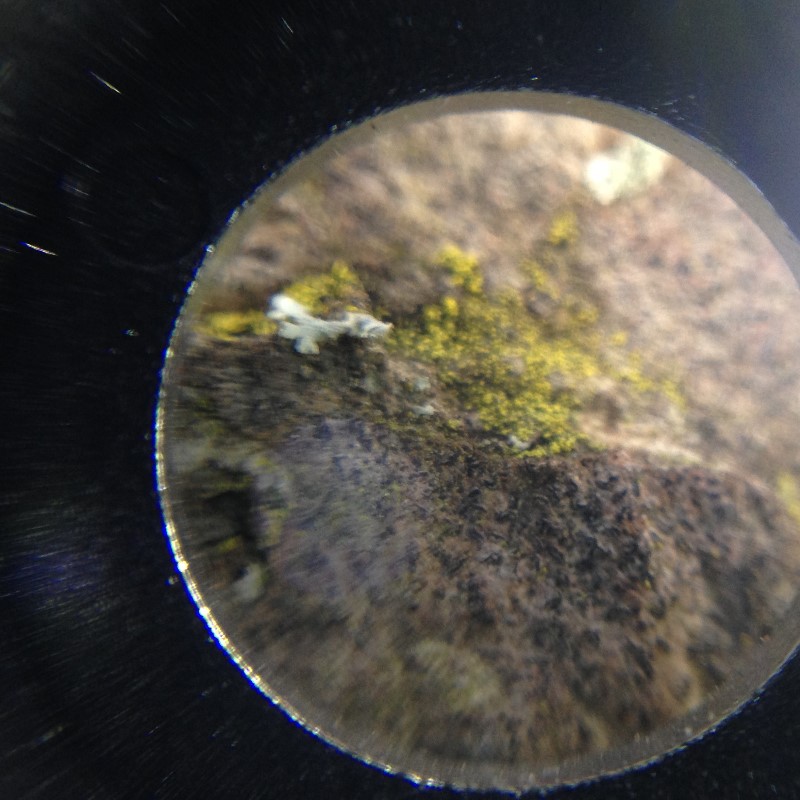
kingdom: Fungi
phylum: Ascomycota
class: Candelariomycetes
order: Candelariales
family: Candelariaceae
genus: Candelariella
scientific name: Candelariella xanthostigma
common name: kornet æggeblommelav
